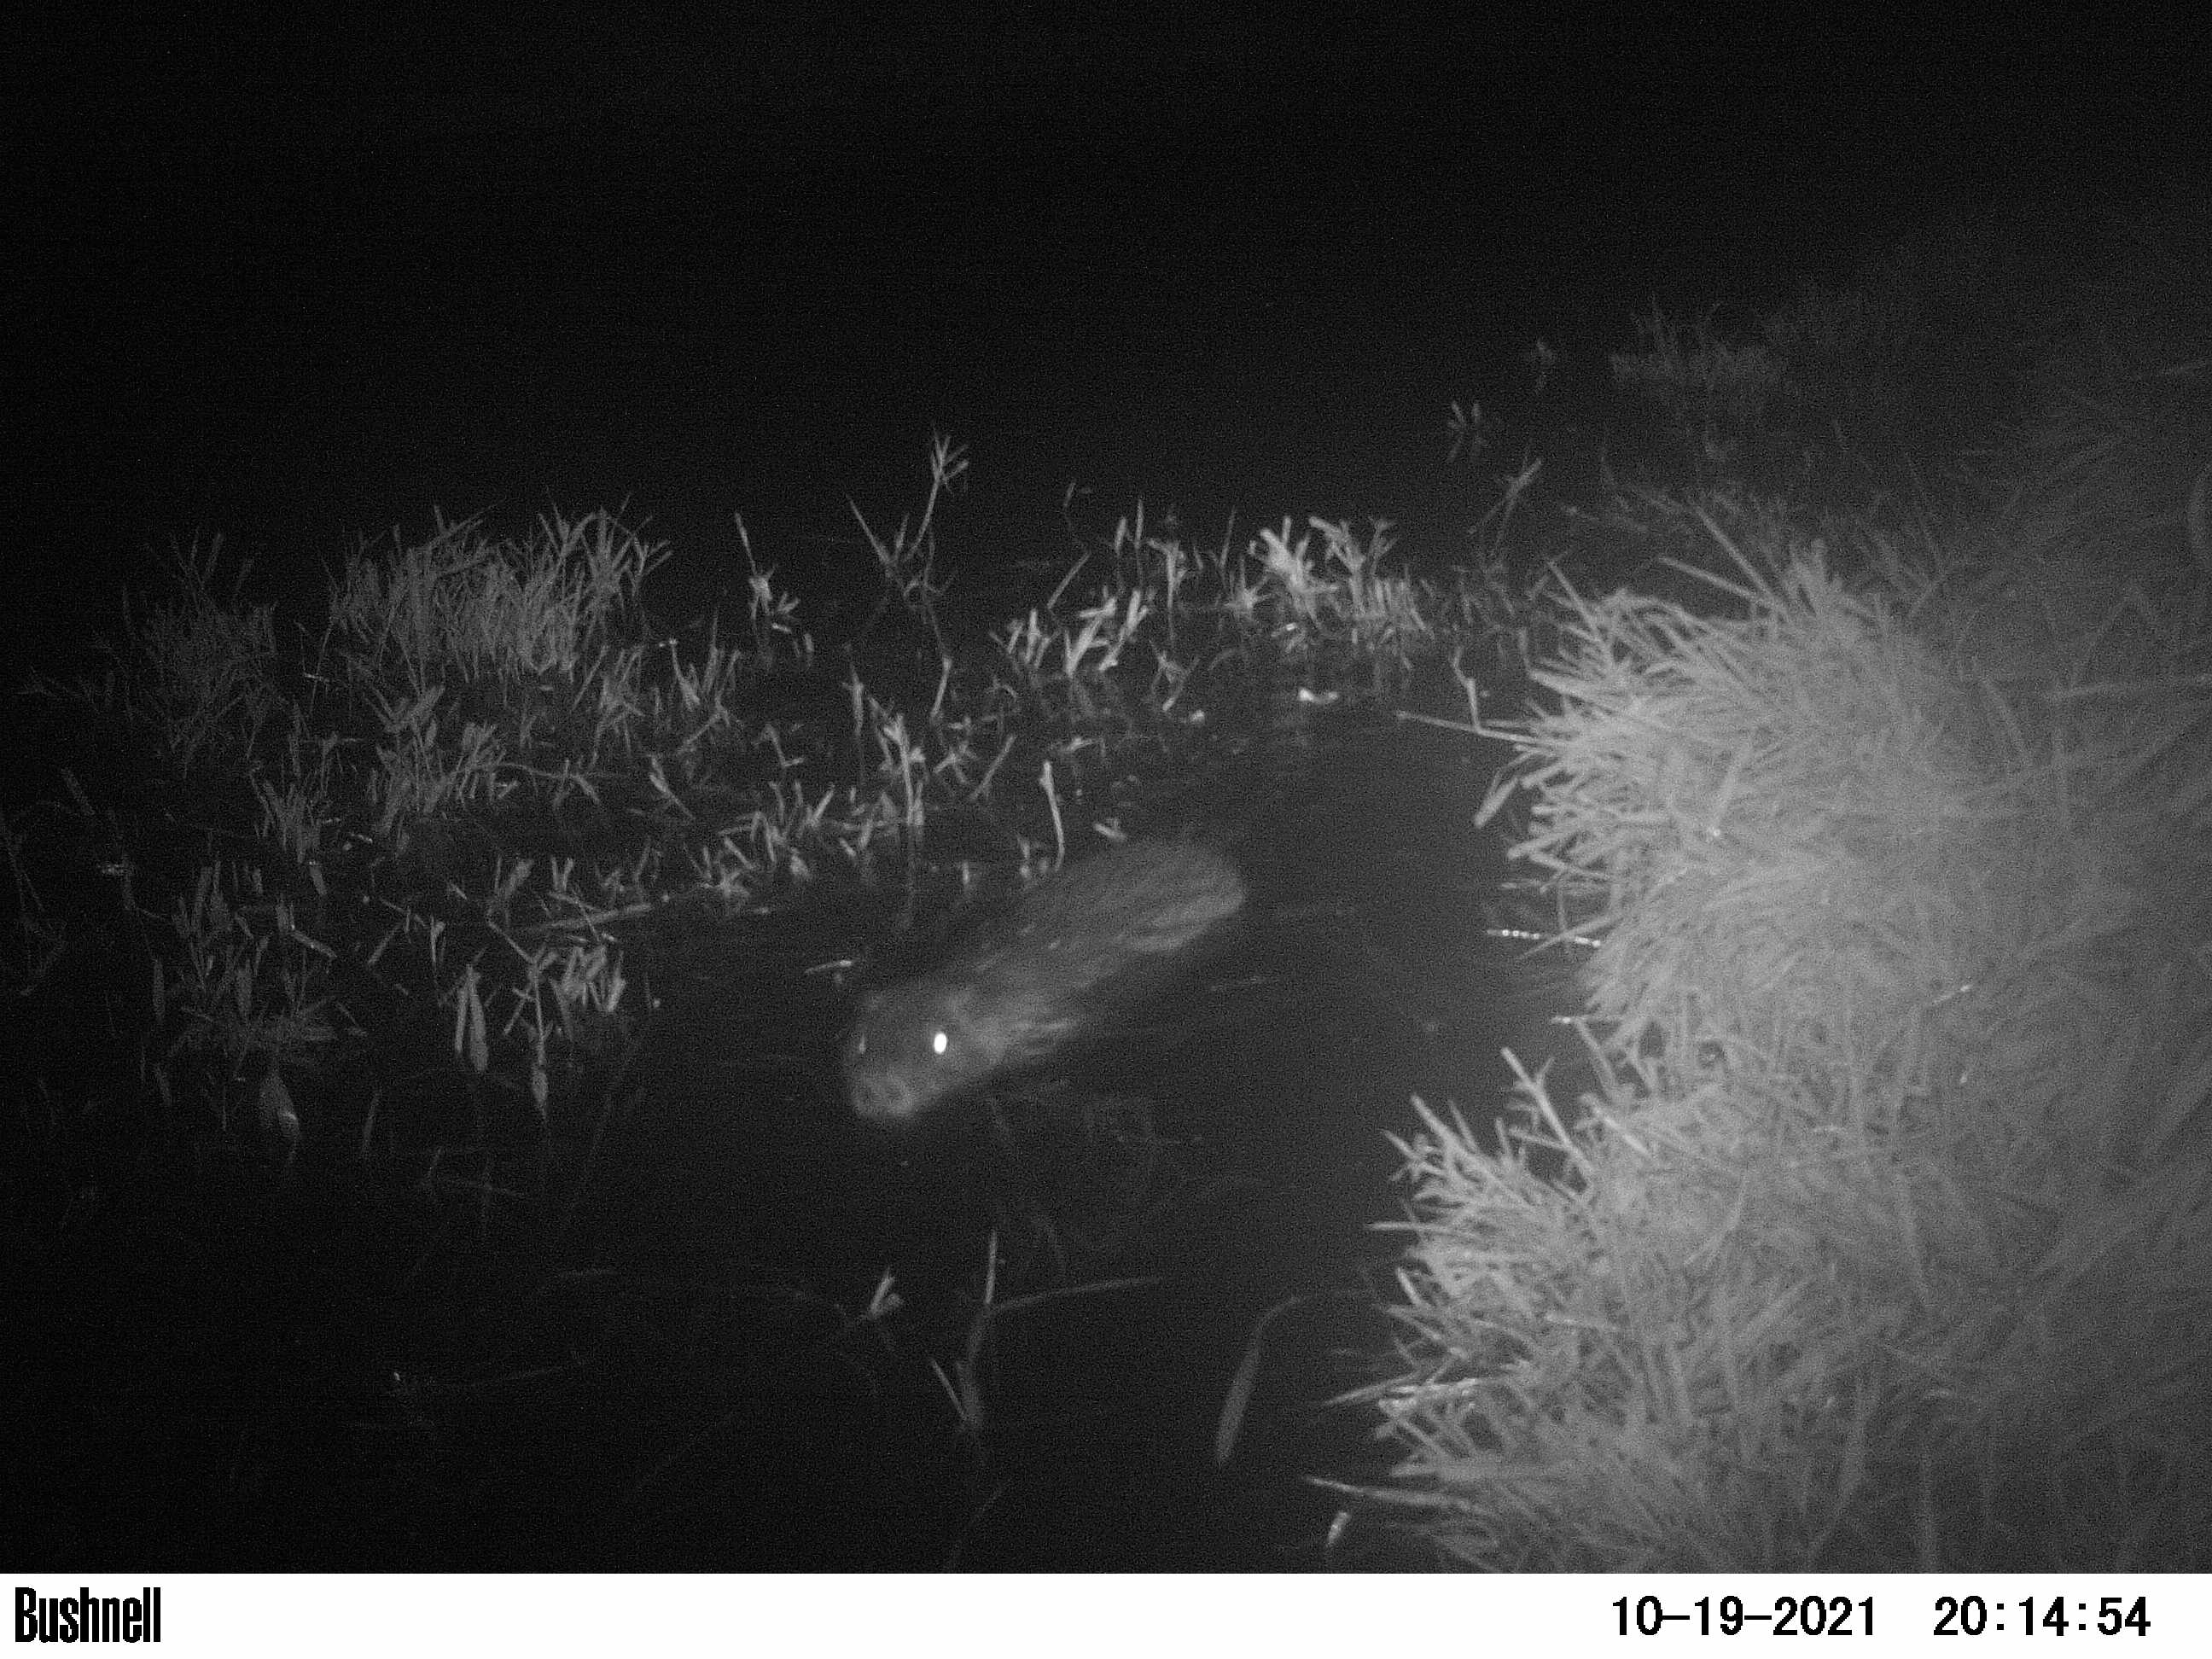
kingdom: Animalia
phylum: Chordata
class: Mammalia
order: Rodentia
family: Myocastoridae
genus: Myocastor
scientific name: Myocastor coypus
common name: Coypu
